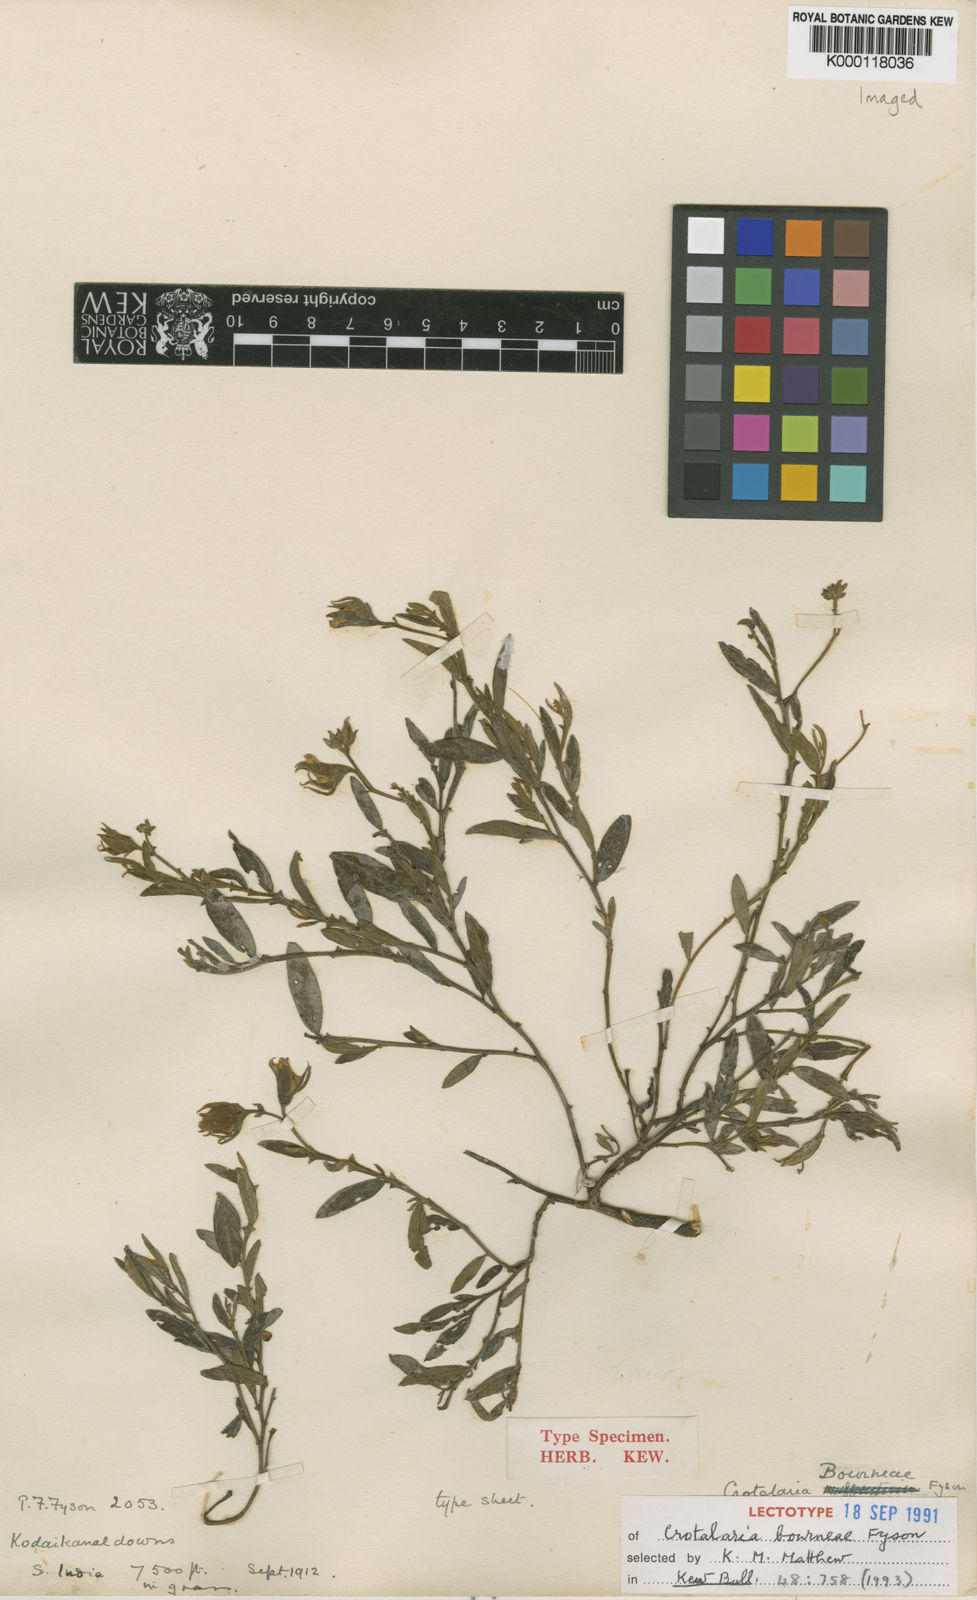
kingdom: Plantae
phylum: Tracheophyta
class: Magnoliopsida
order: Fabales
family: Fabaceae
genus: Crotalaria
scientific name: Crotalaria scabrella
